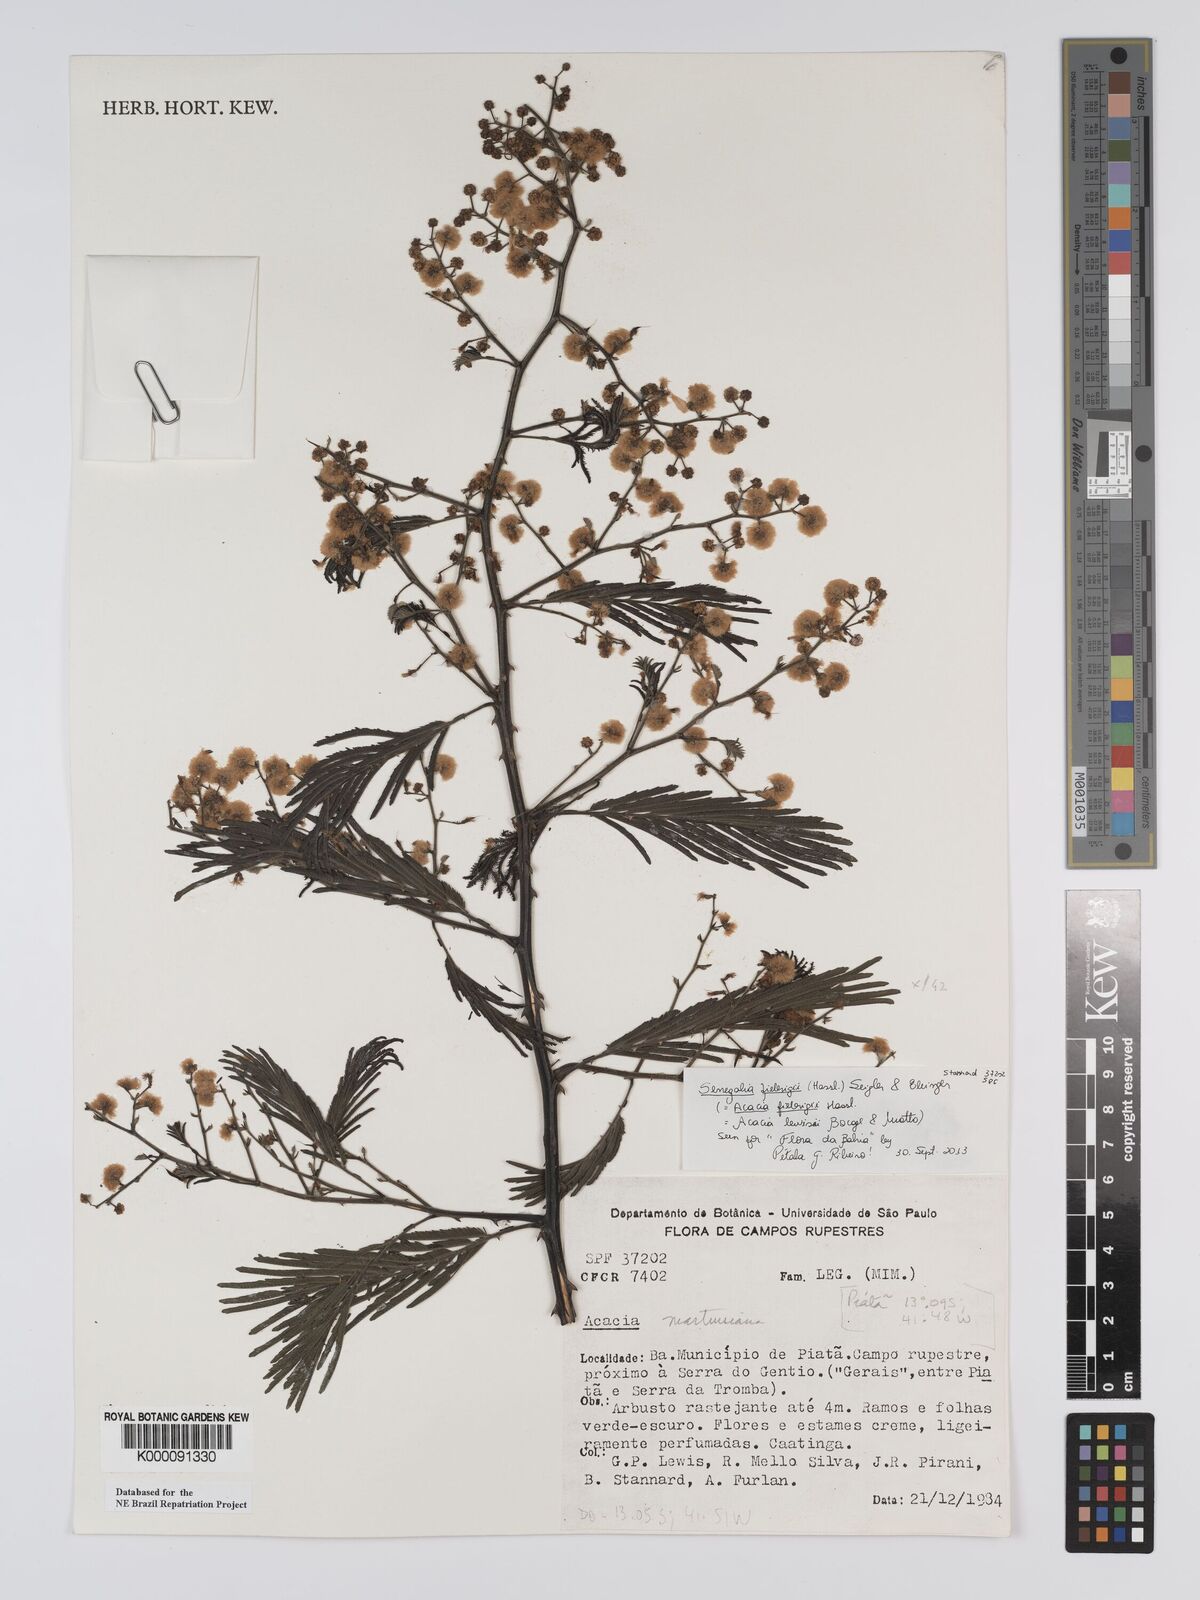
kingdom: Plantae
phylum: Tracheophyta
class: Magnoliopsida
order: Fabales
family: Fabaceae
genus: Senegalia
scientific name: Senegalia martiusiana
